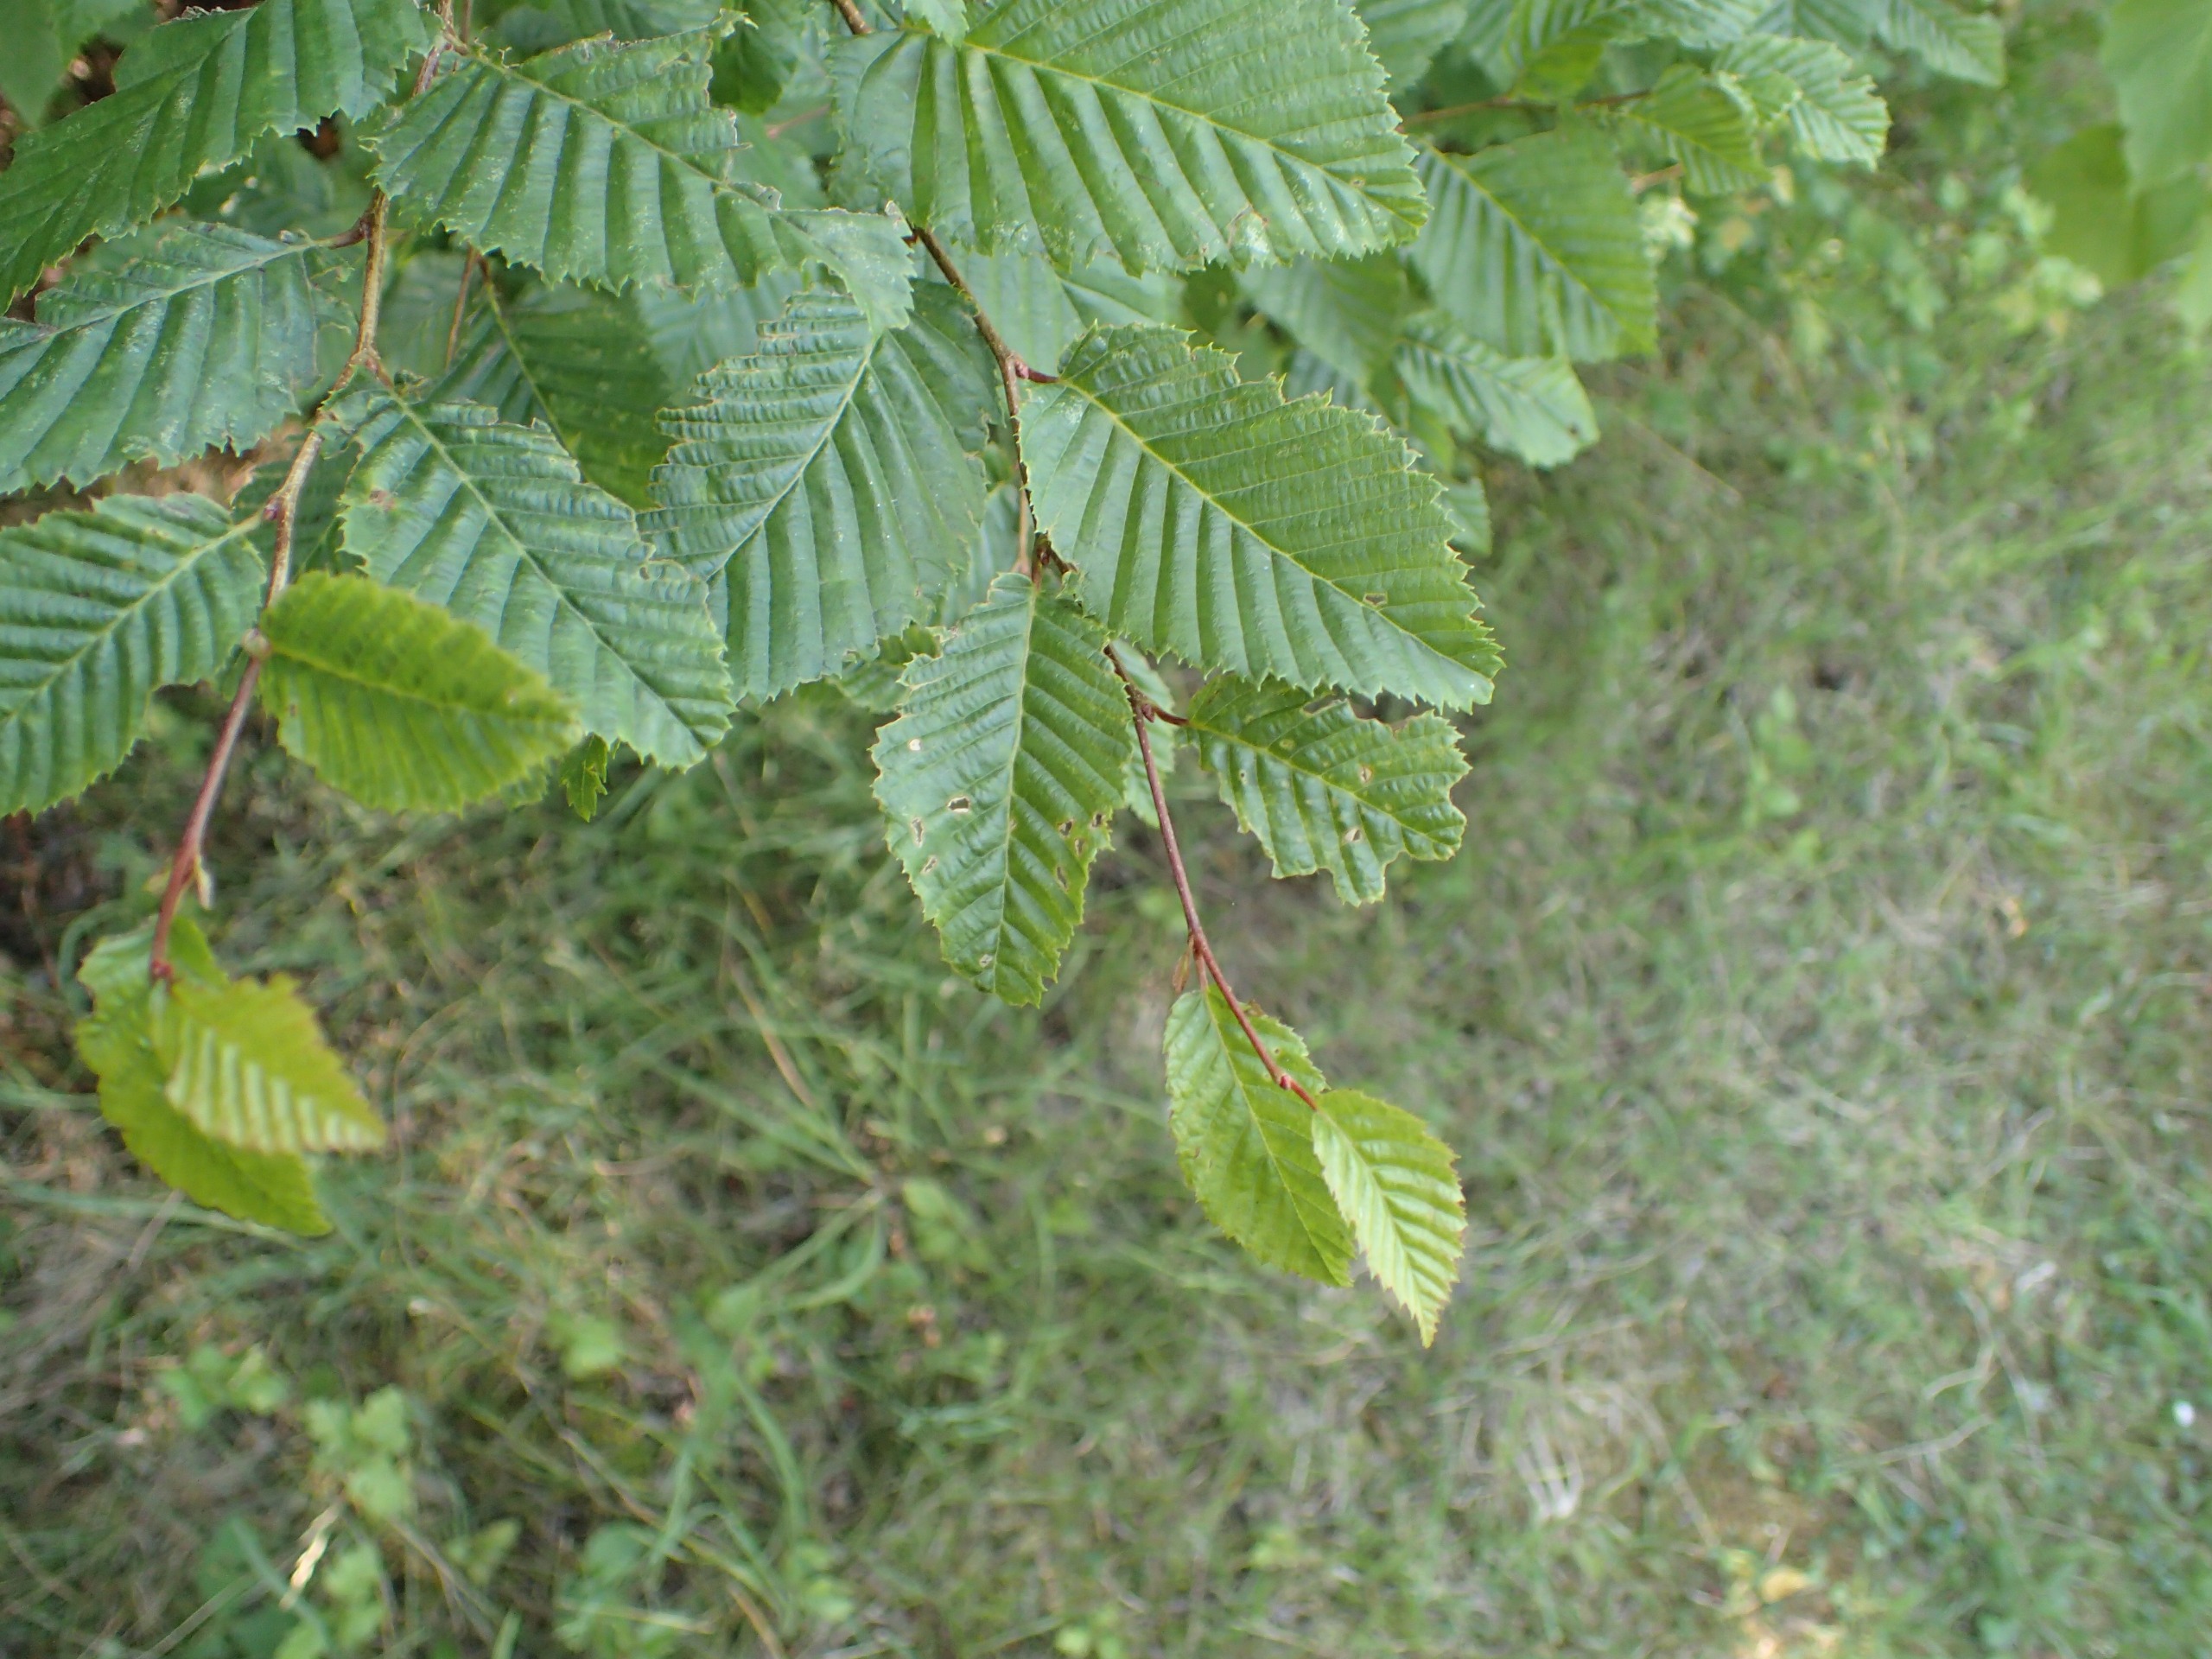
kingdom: Plantae
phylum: Tracheophyta
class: Magnoliopsida
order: Fagales
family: Betulaceae
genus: Carpinus
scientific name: Carpinus betulus
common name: Avnbøg
